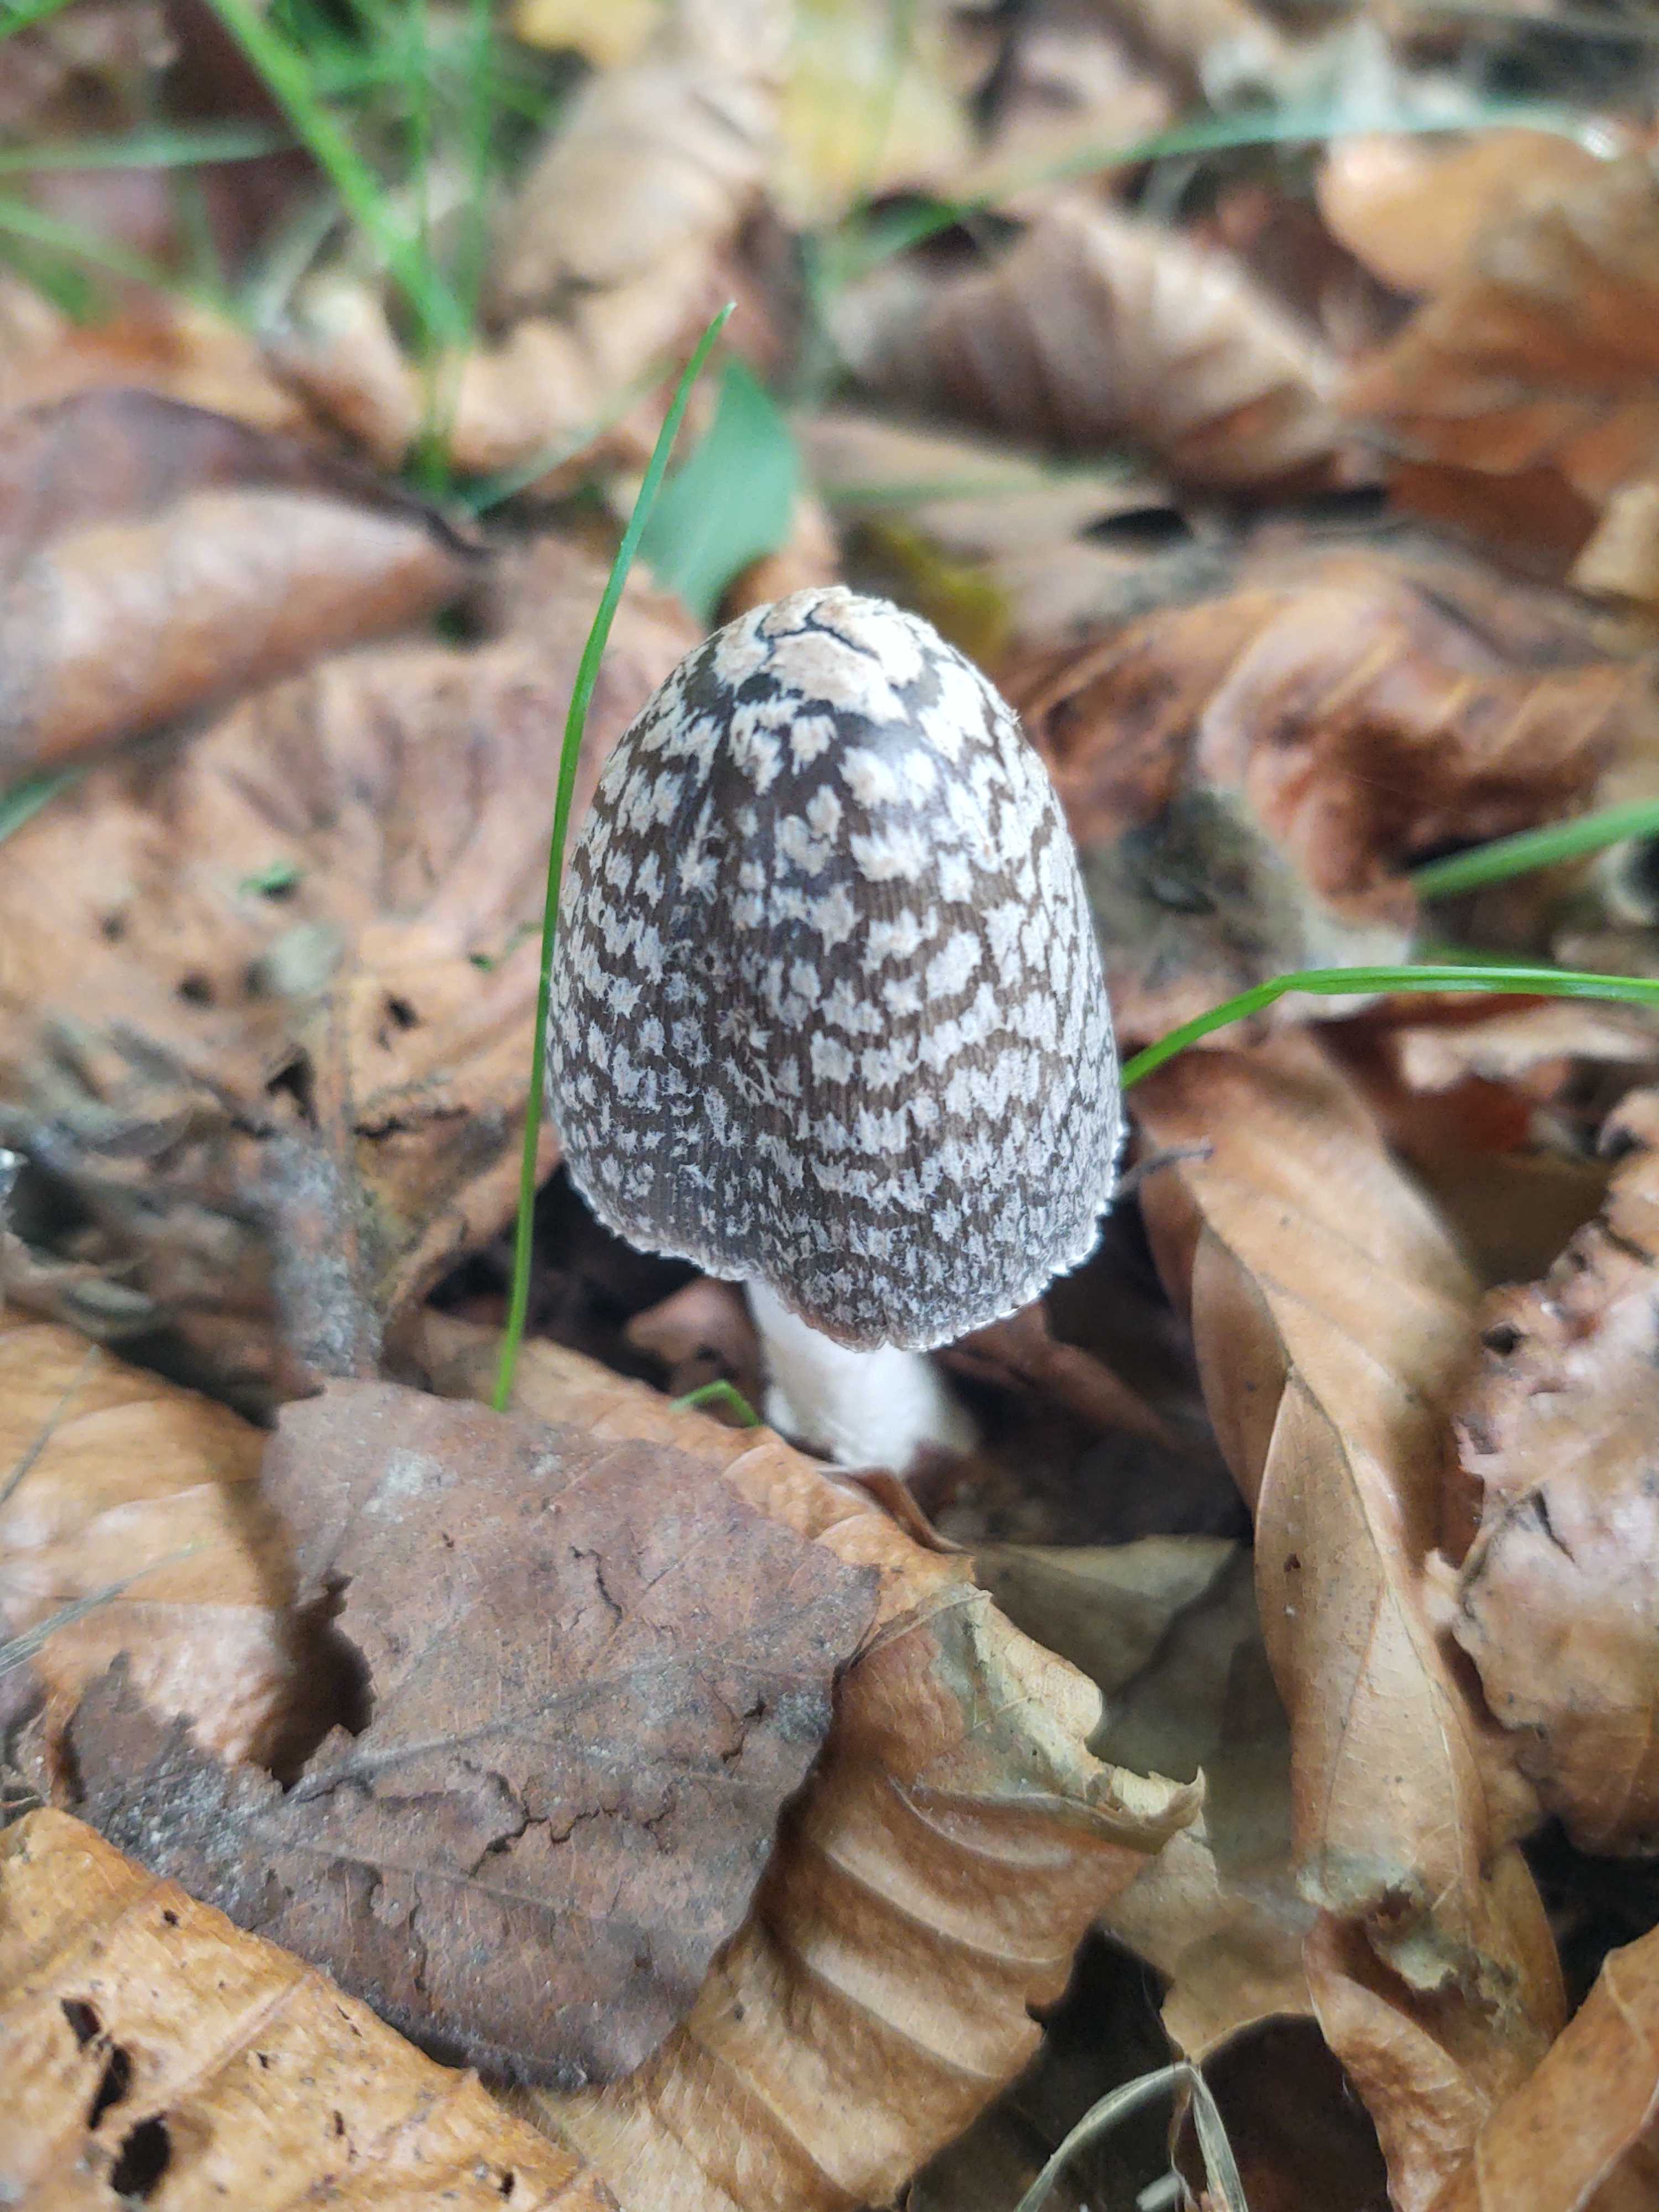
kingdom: Fungi
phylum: Basidiomycota
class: Agaricomycetes
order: Agaricales
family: Psathyrellaceae
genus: Coprinopsis
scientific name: Coprinopsis picacea
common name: skade-blækhat
